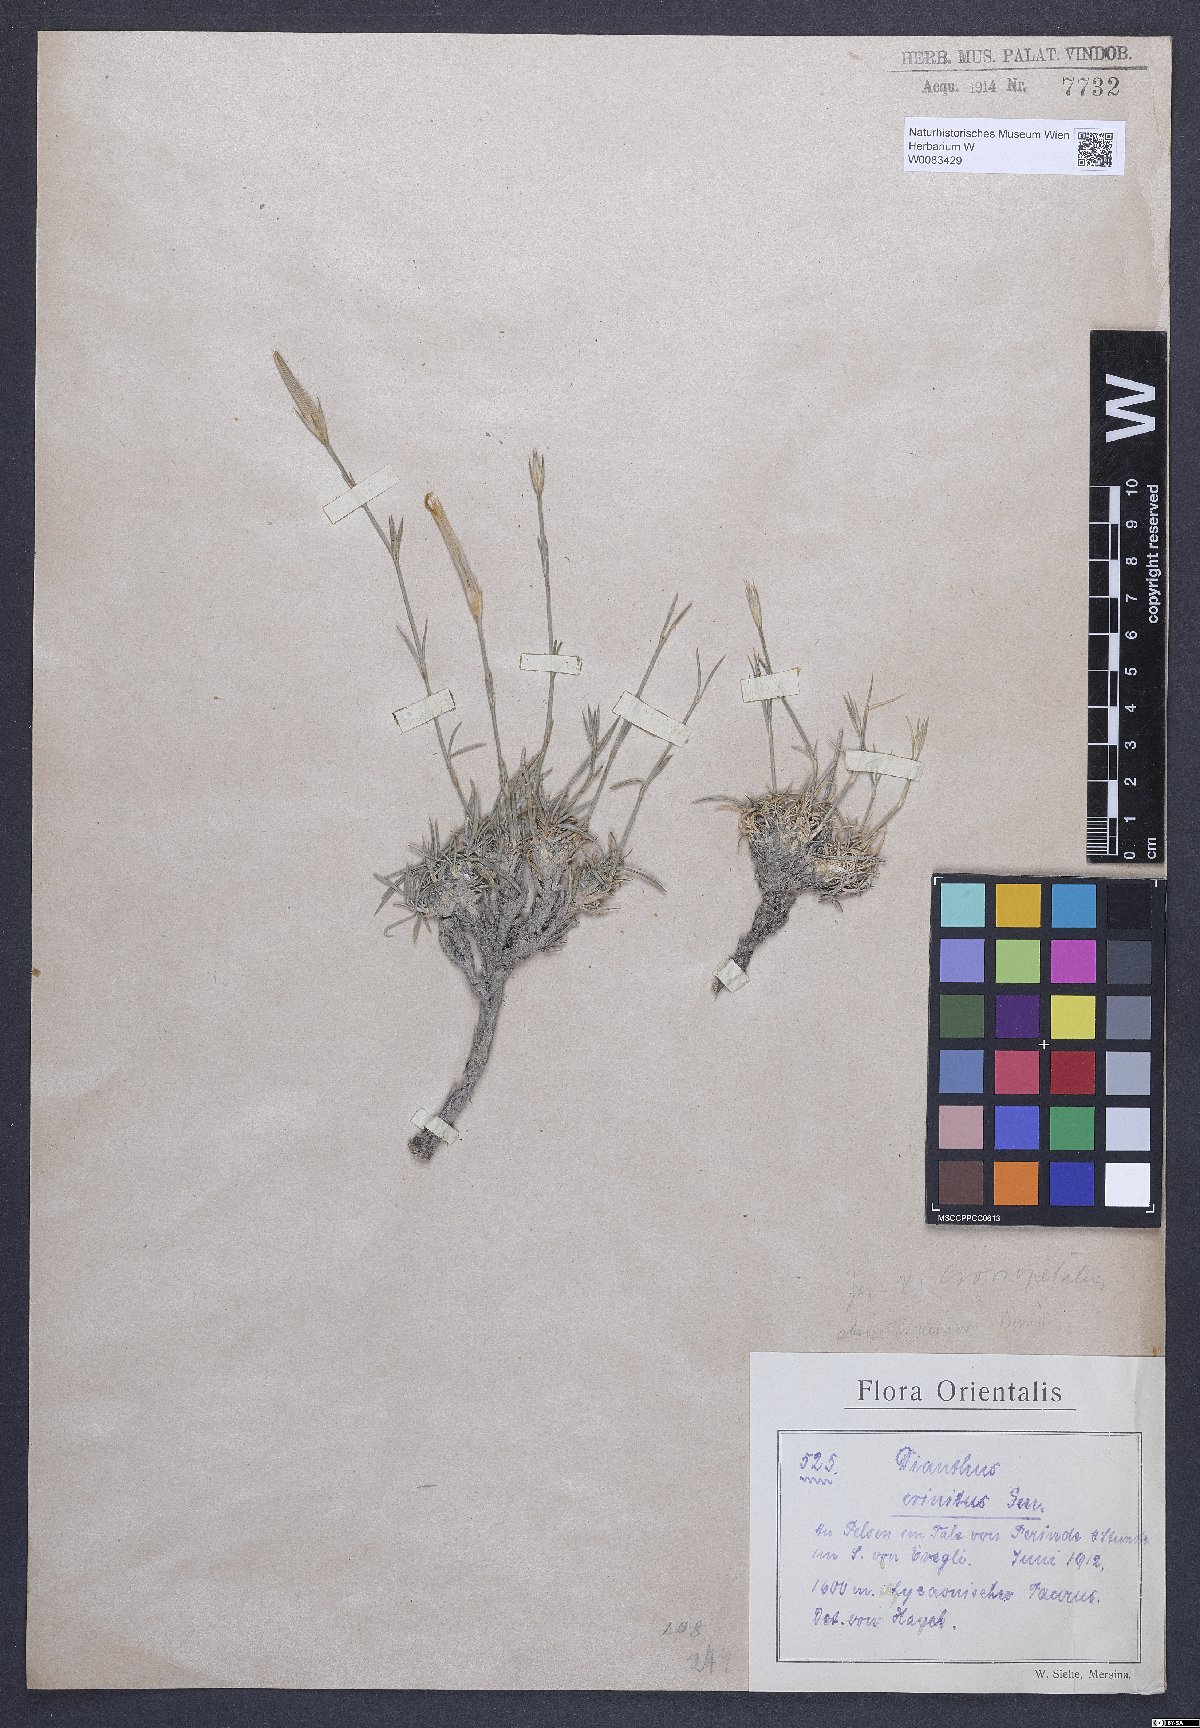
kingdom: Plantae
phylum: Tracheophyta
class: Magnoliopsida
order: Caryophyllales
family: Caryophyllaceae
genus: Dianthus
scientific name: Dianthus crinitus
